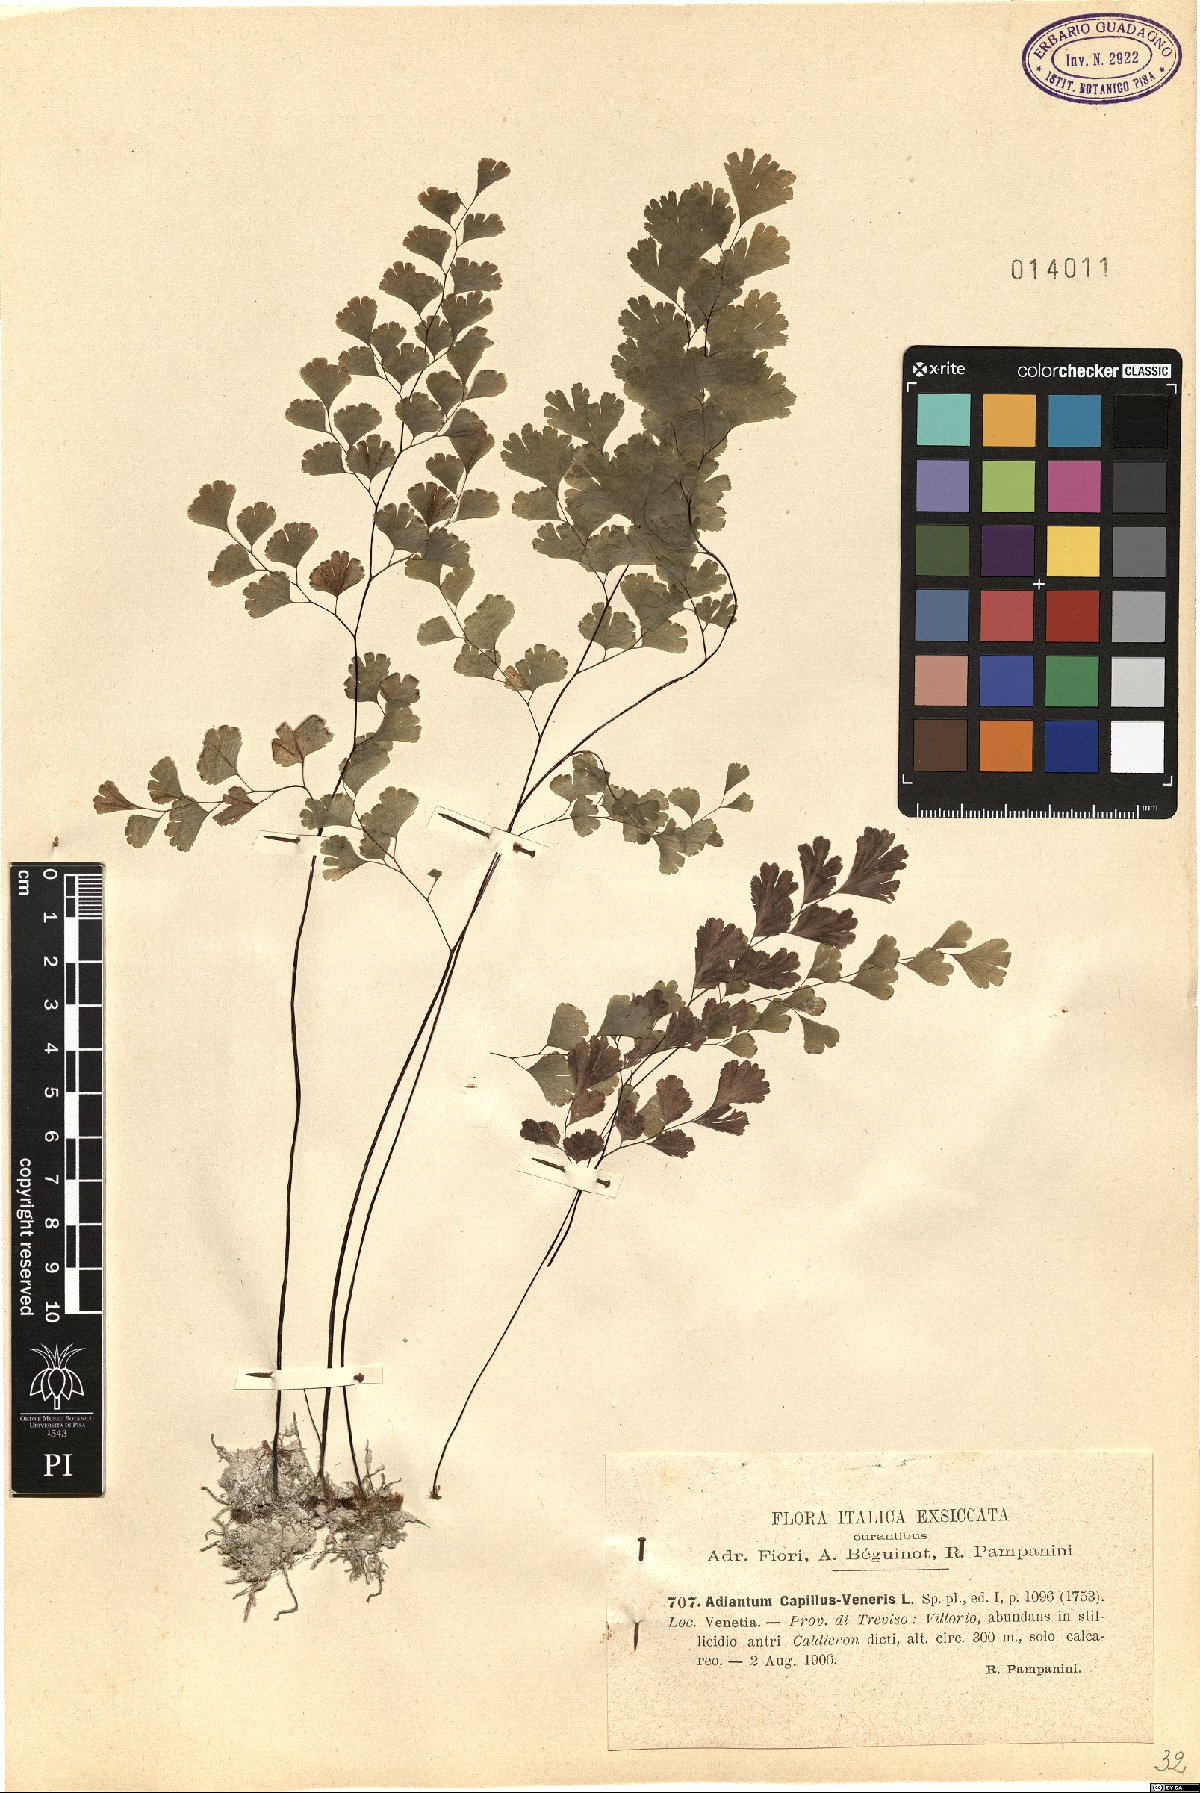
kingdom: Plantae
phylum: Tracheophyta
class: Polypodiopsida
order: Polypodiales
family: Pteridaceae
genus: Adiantum
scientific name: Adiantum capillus-veneris
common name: Maidenhair fern
